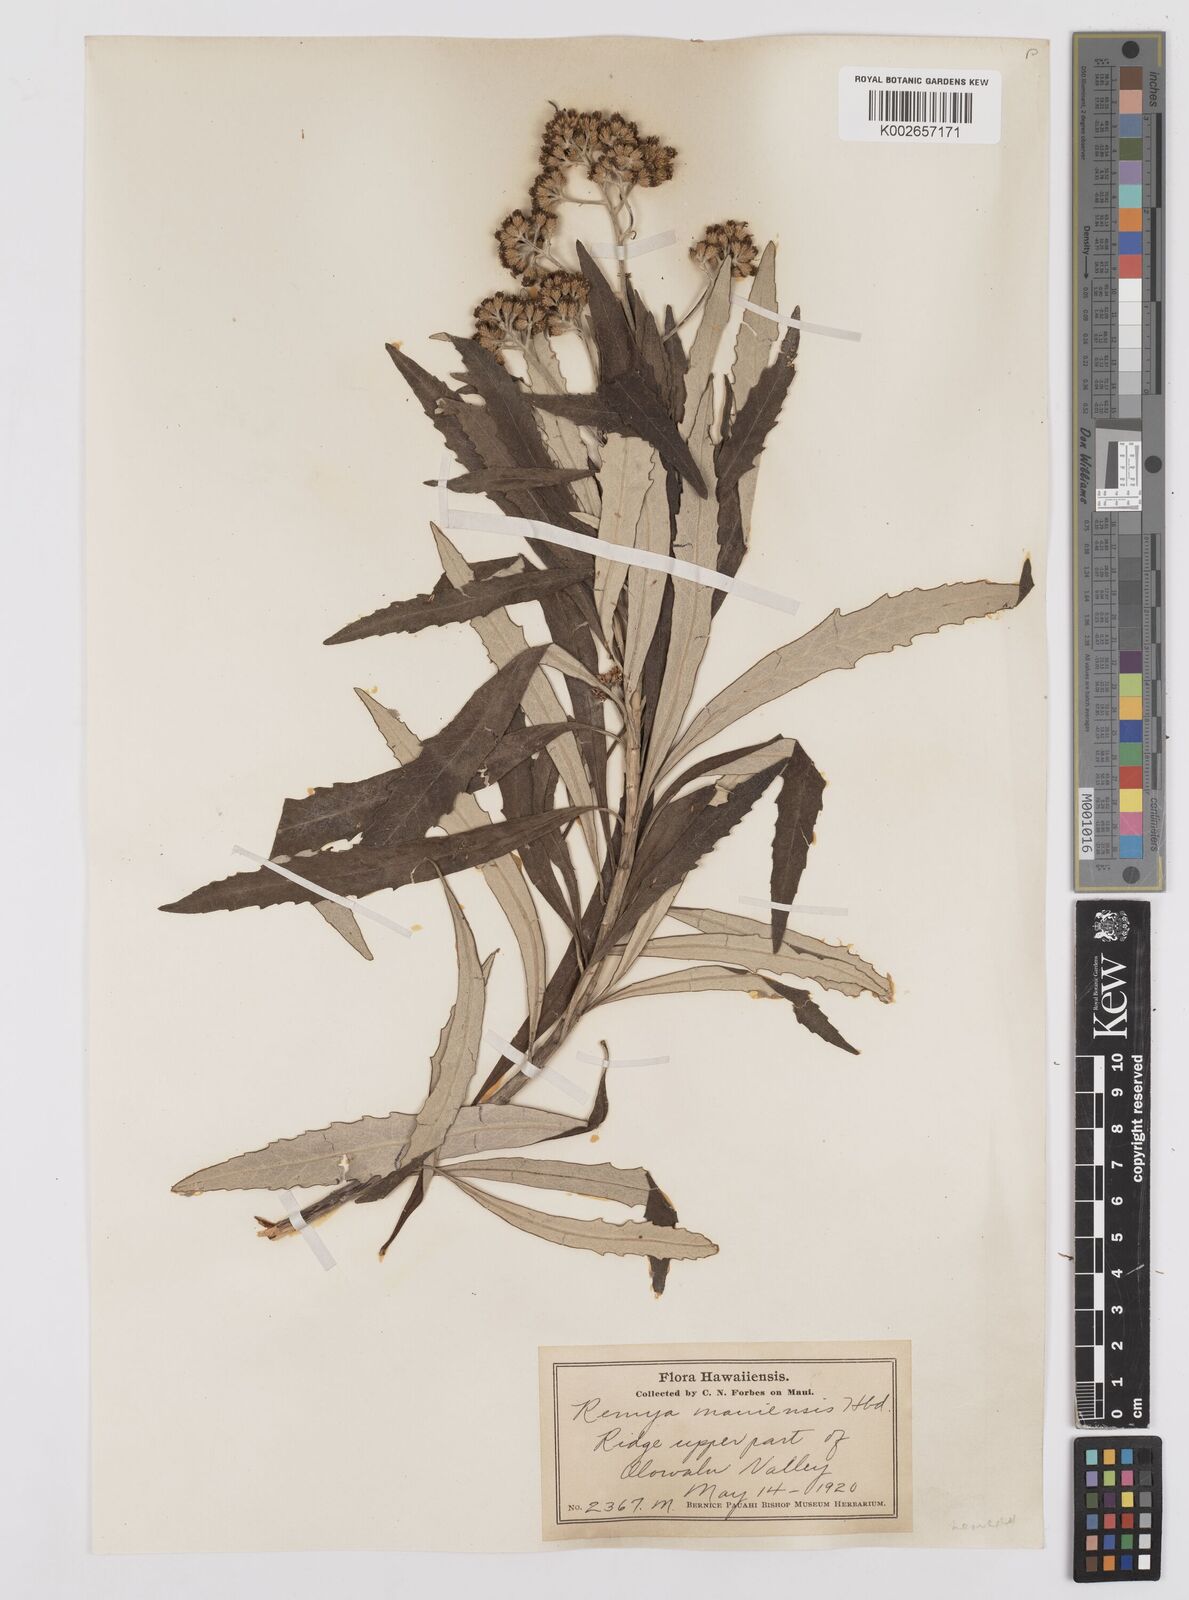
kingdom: Plantae
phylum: Tracheophyta
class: Magnoliopsida
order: Asterales
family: Asteraceae
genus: Remya
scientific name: Remya mauiensis
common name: Maui remya
